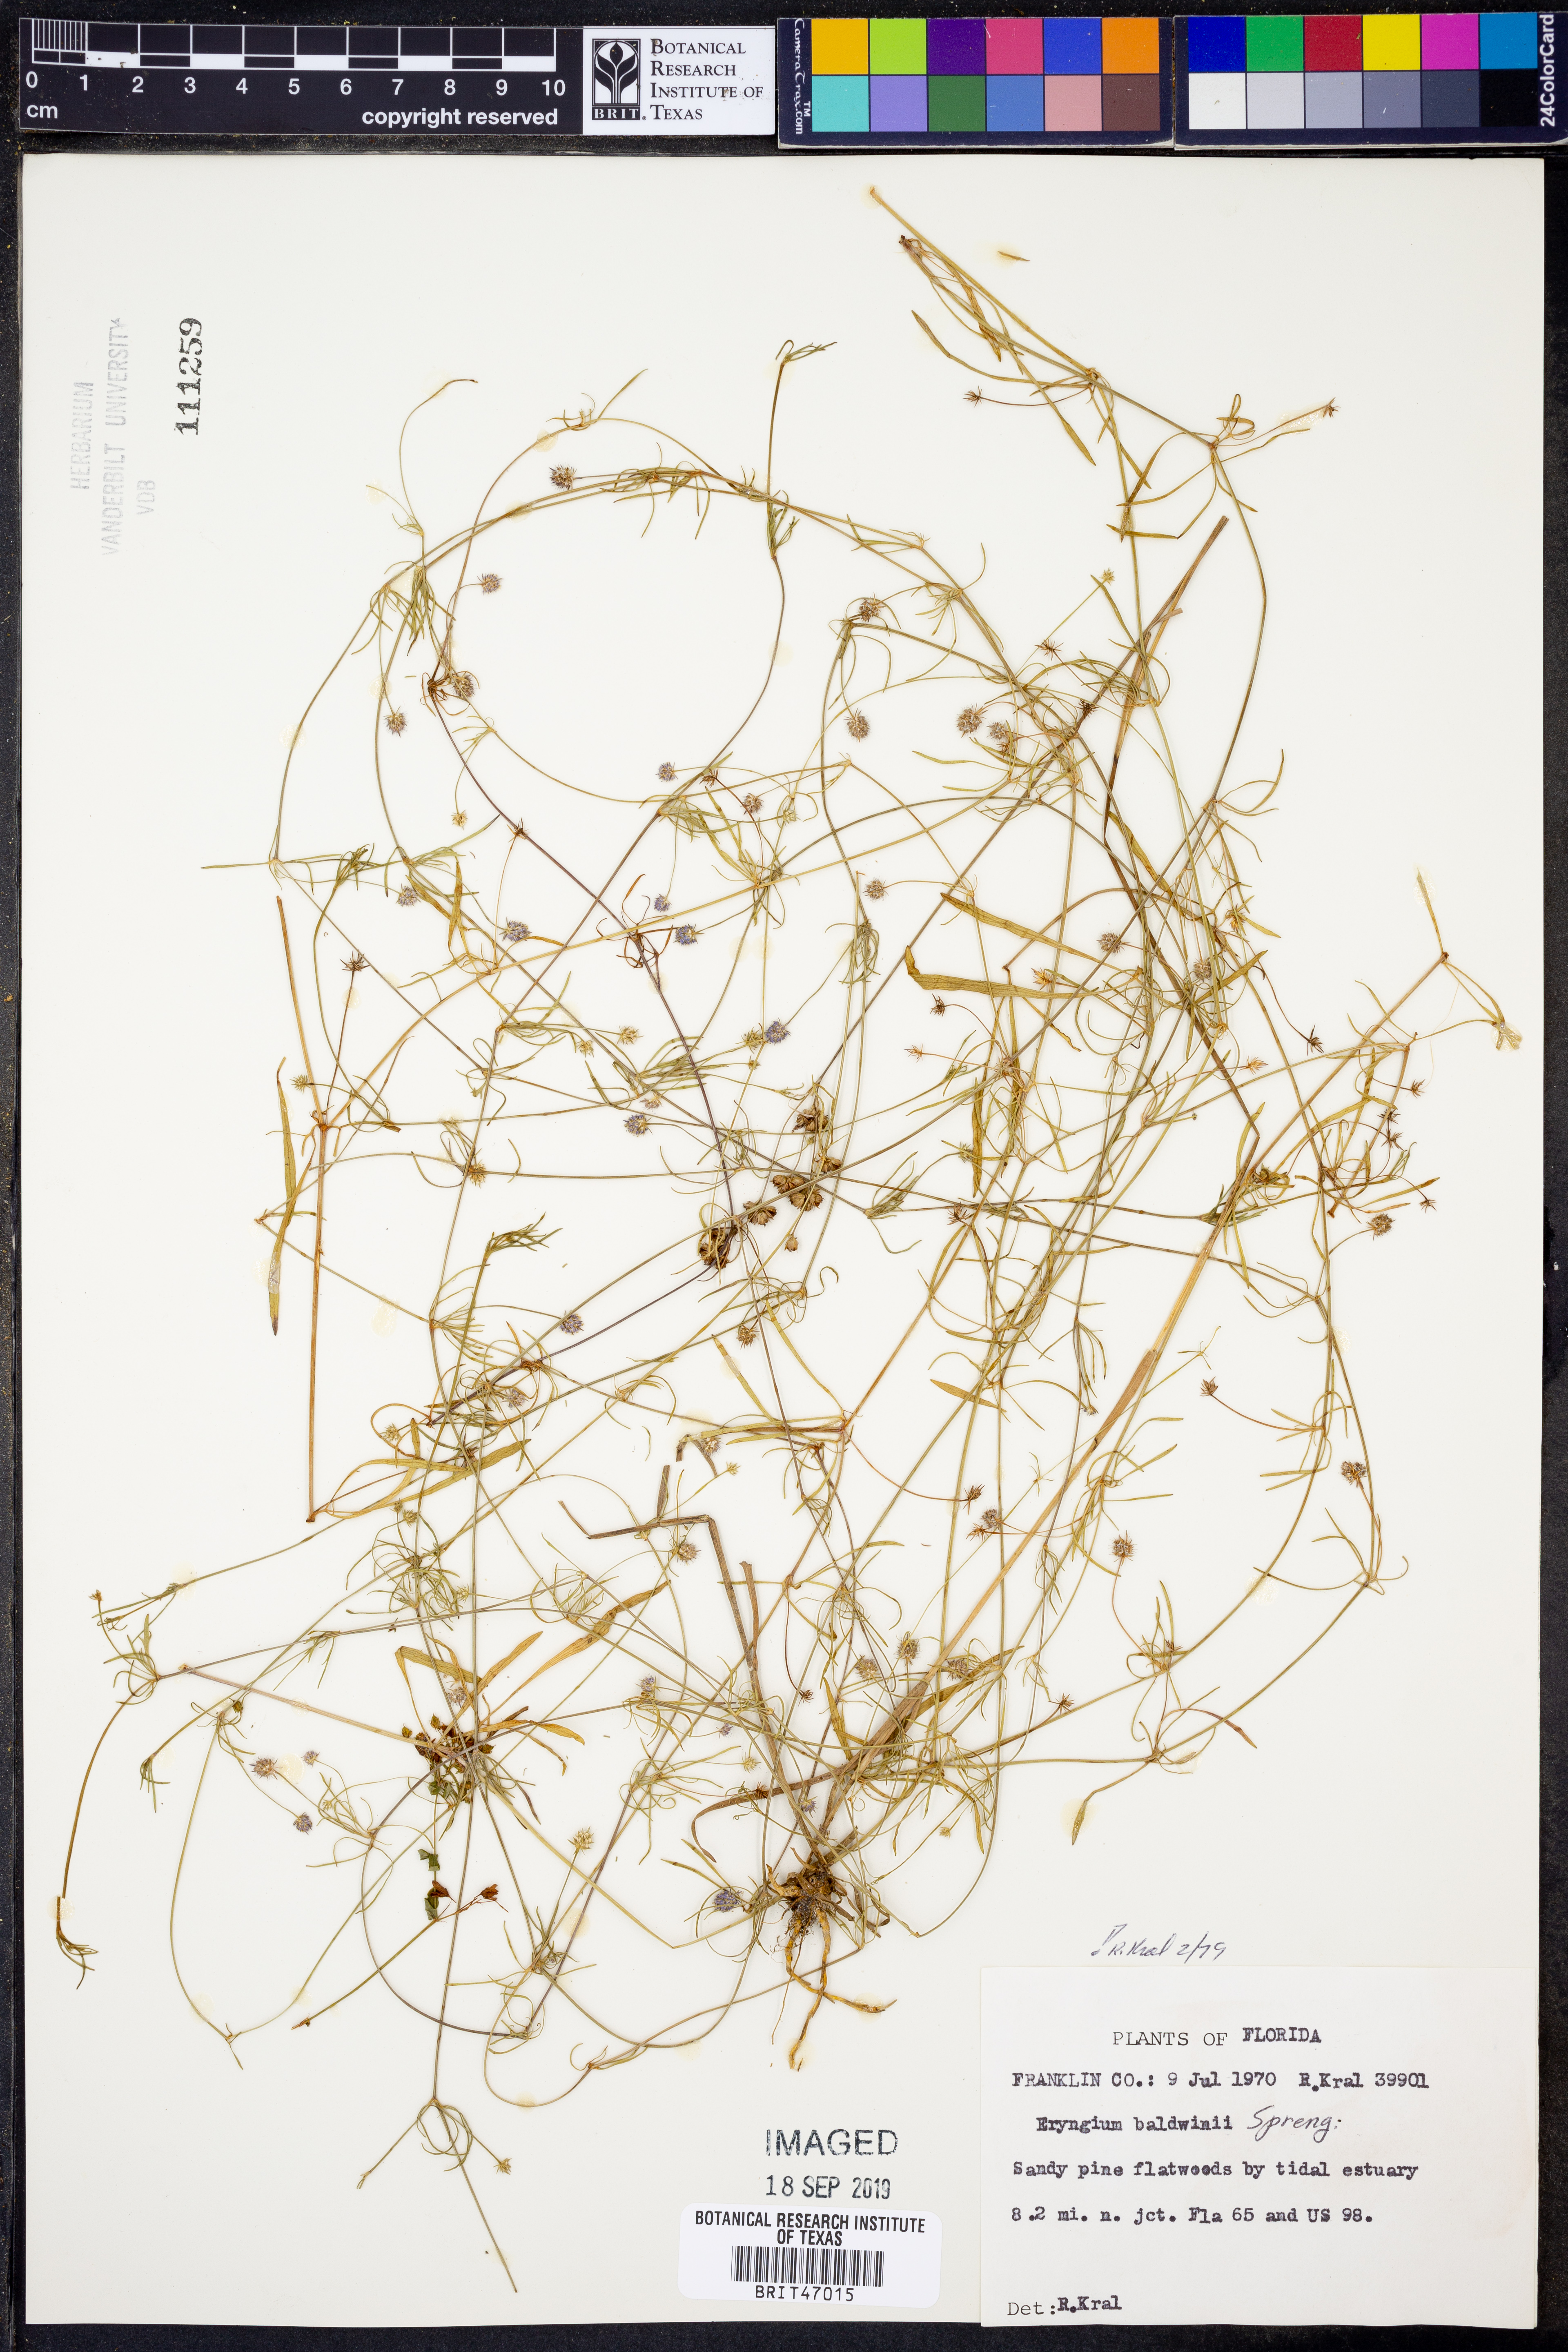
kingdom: Plantae
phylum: Tracheophyta
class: Magnoliopsida
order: Apiales
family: Apiaceae
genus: Eryngium
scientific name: Eryngium baldwinii
